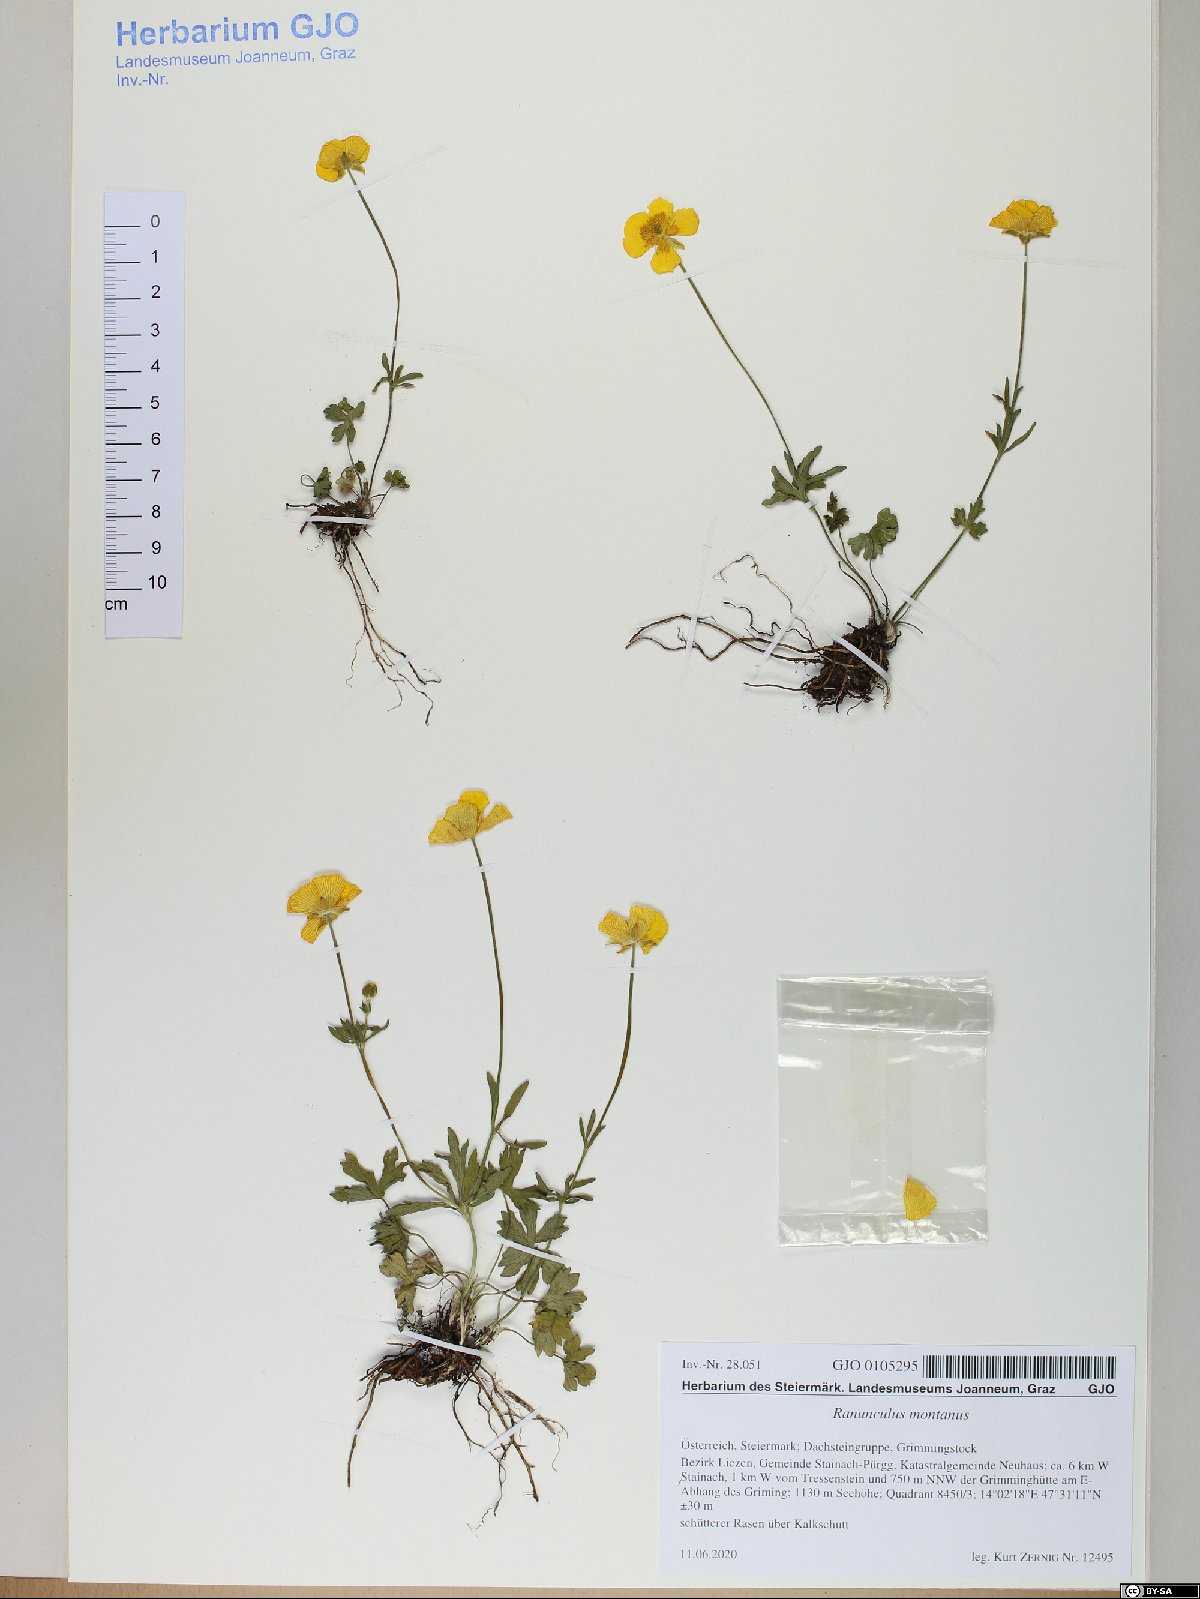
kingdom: Plantae
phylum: Tracheophyta
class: Magnoliopsida
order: Ranunculales
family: Ranunculaceae
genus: Ranunculus
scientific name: Ranunculus montanus
